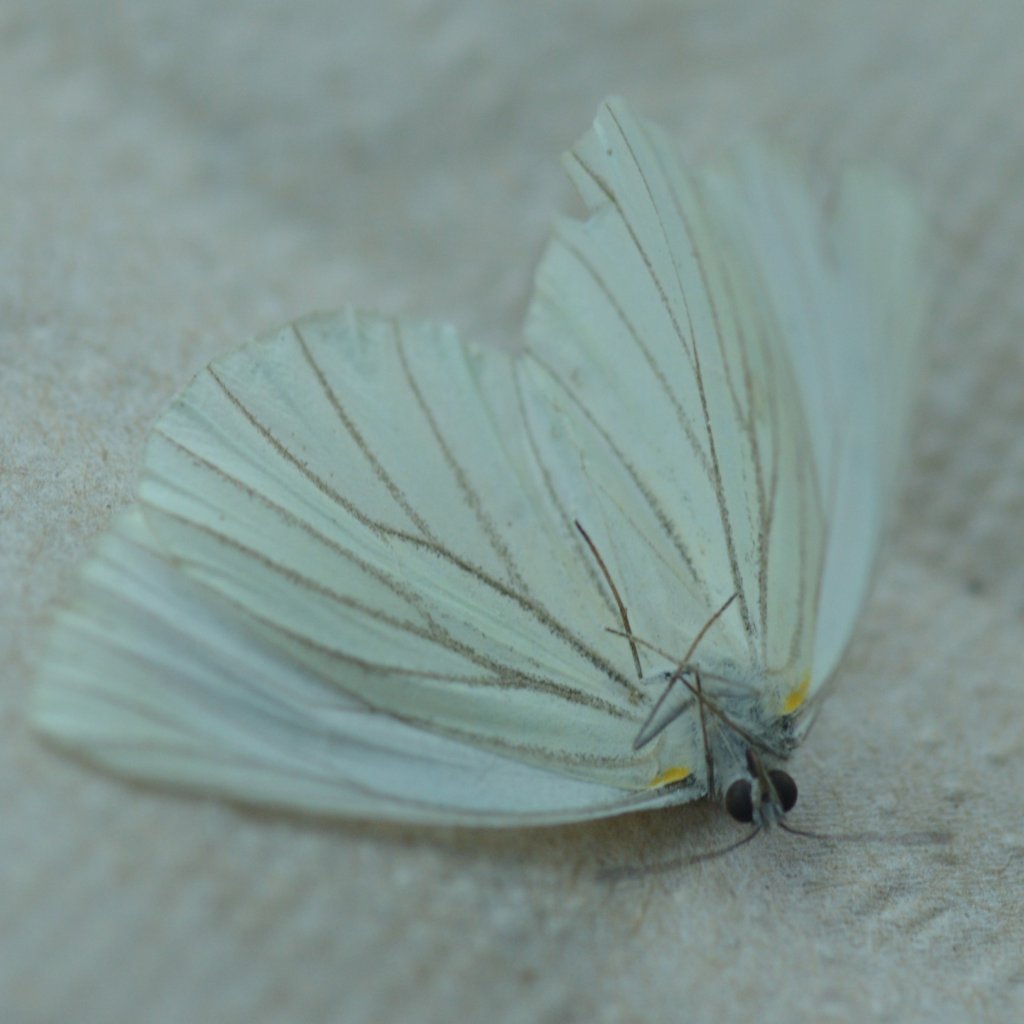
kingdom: Animalia
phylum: Arthropoda
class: Insecta
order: Lepidoptera
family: Pieridae
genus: Pieris
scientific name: Pieris oleracea
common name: Mustard White
